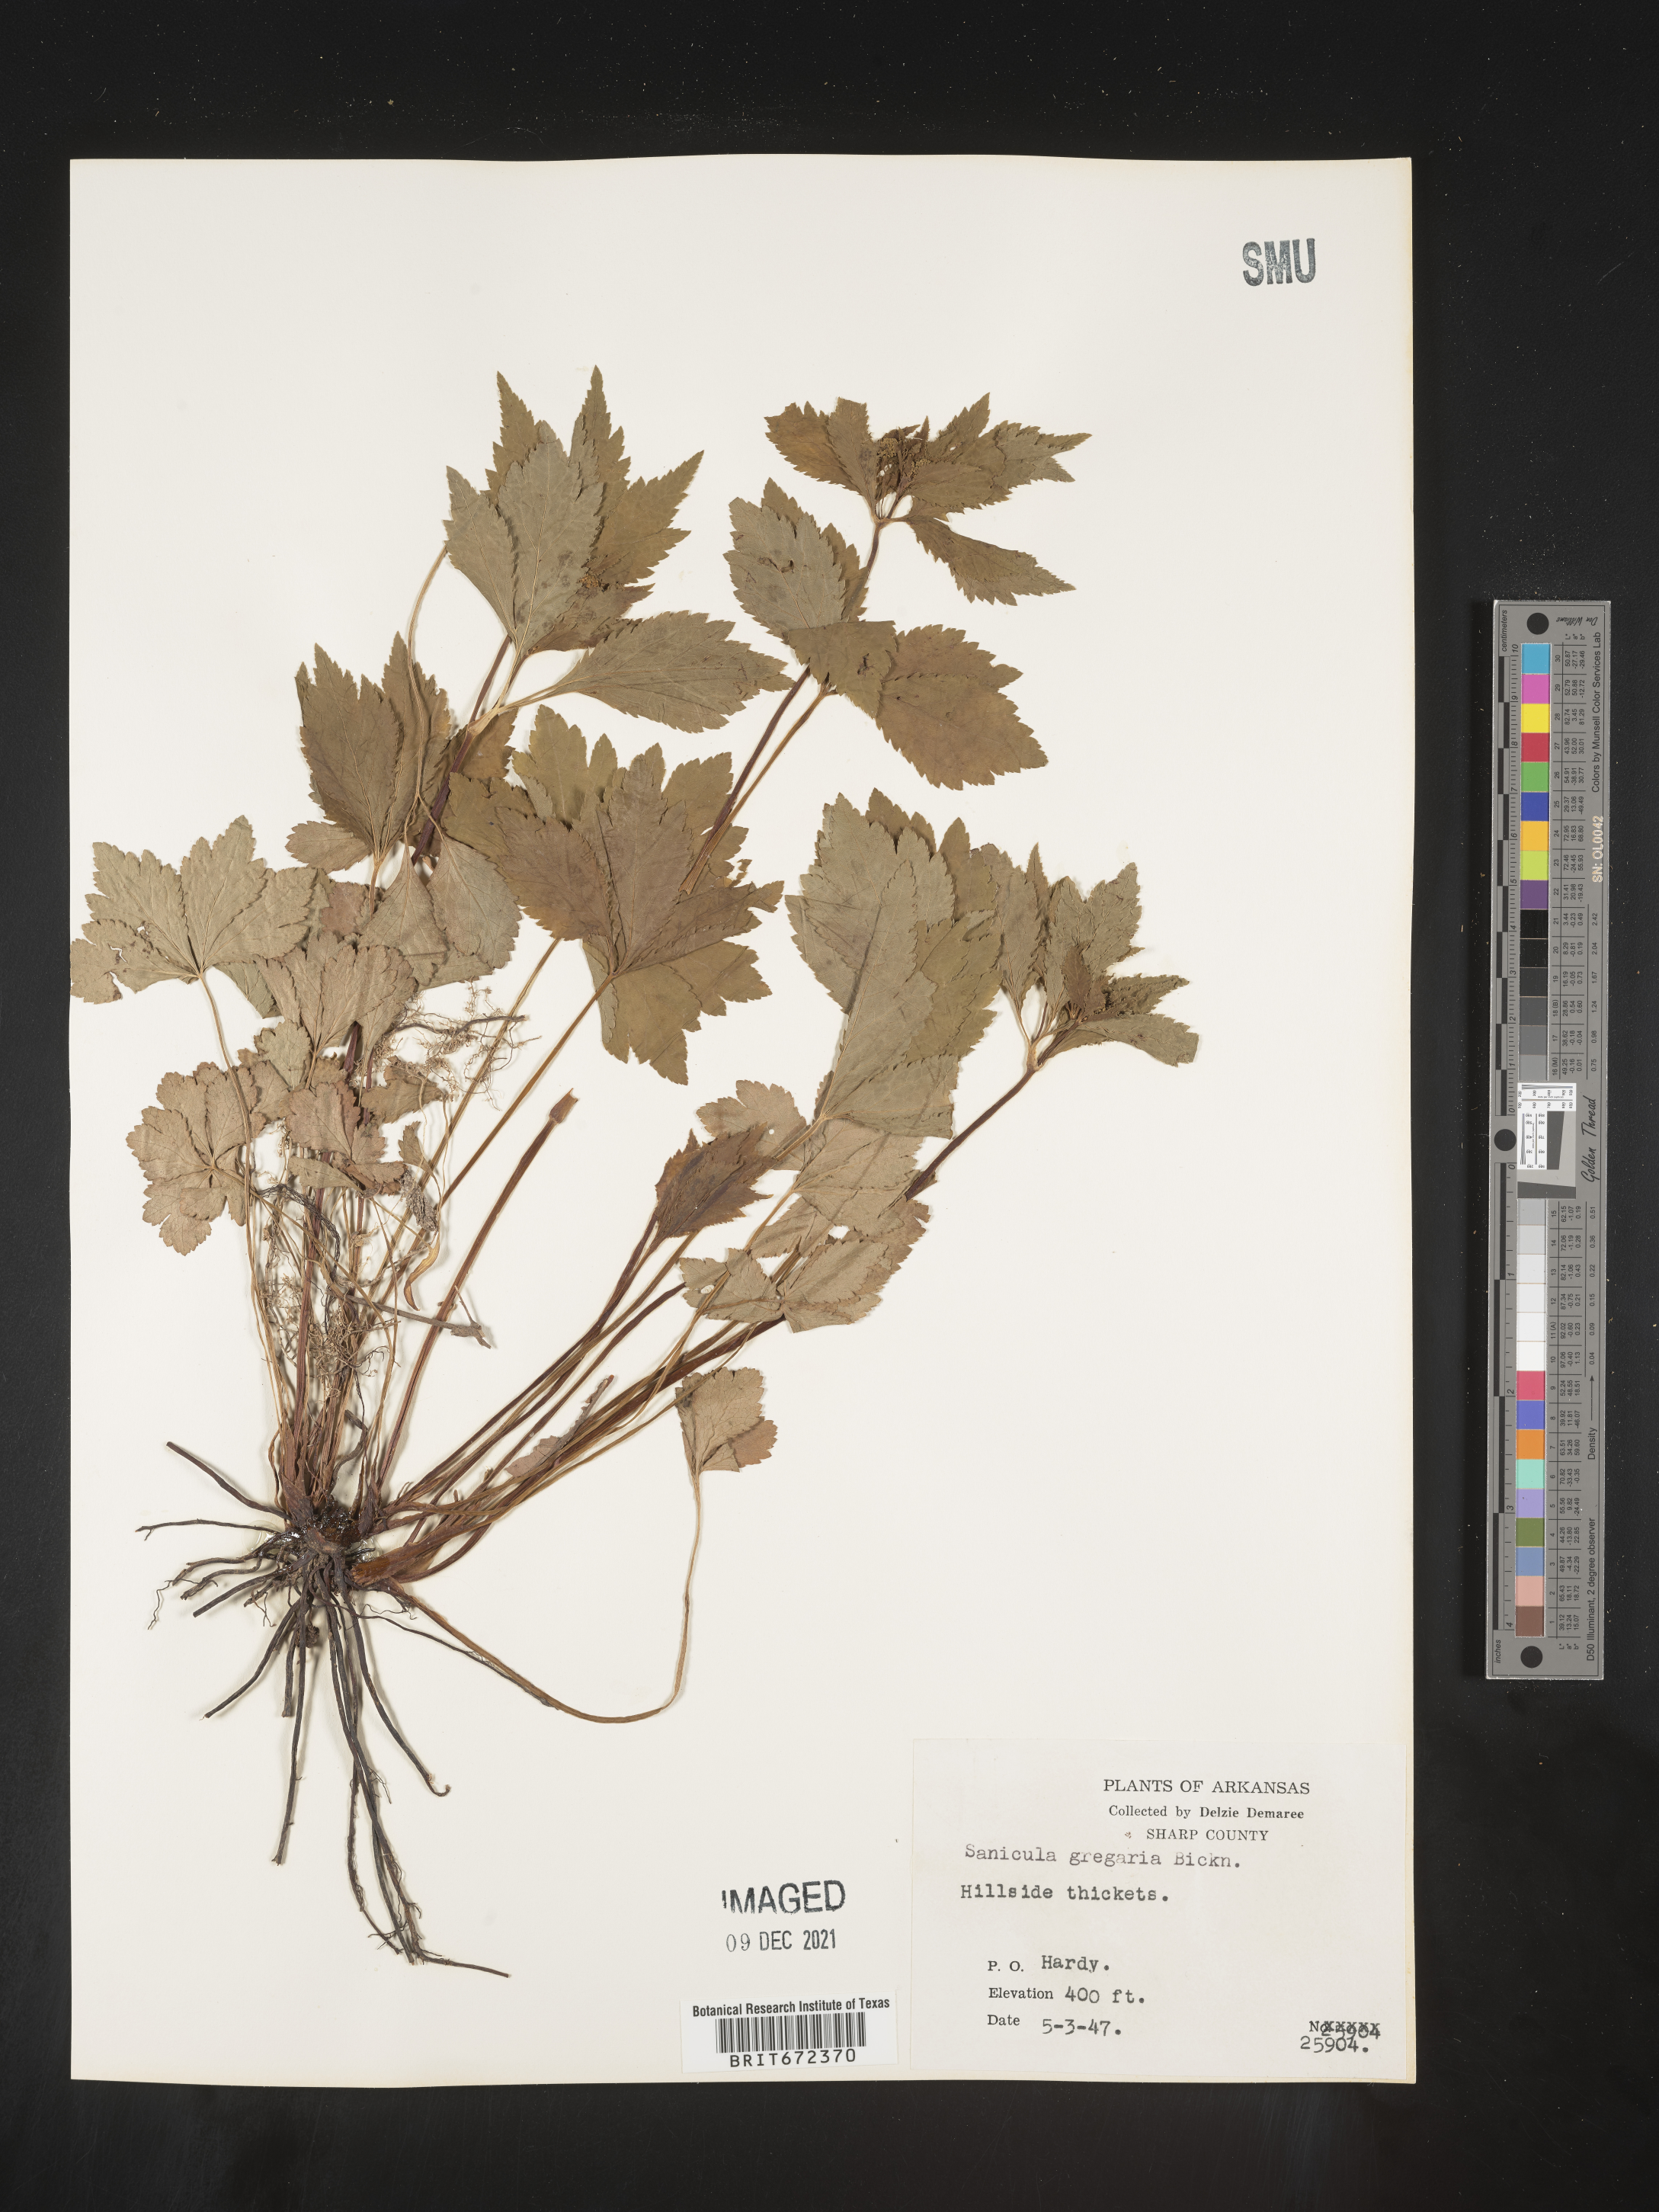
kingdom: Plantae
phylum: Tracheophyta
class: Magnoliopsida
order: Apiales
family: Apiaceae
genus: Sanicula
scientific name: Sanicula odorata
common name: Cluster sanicle
